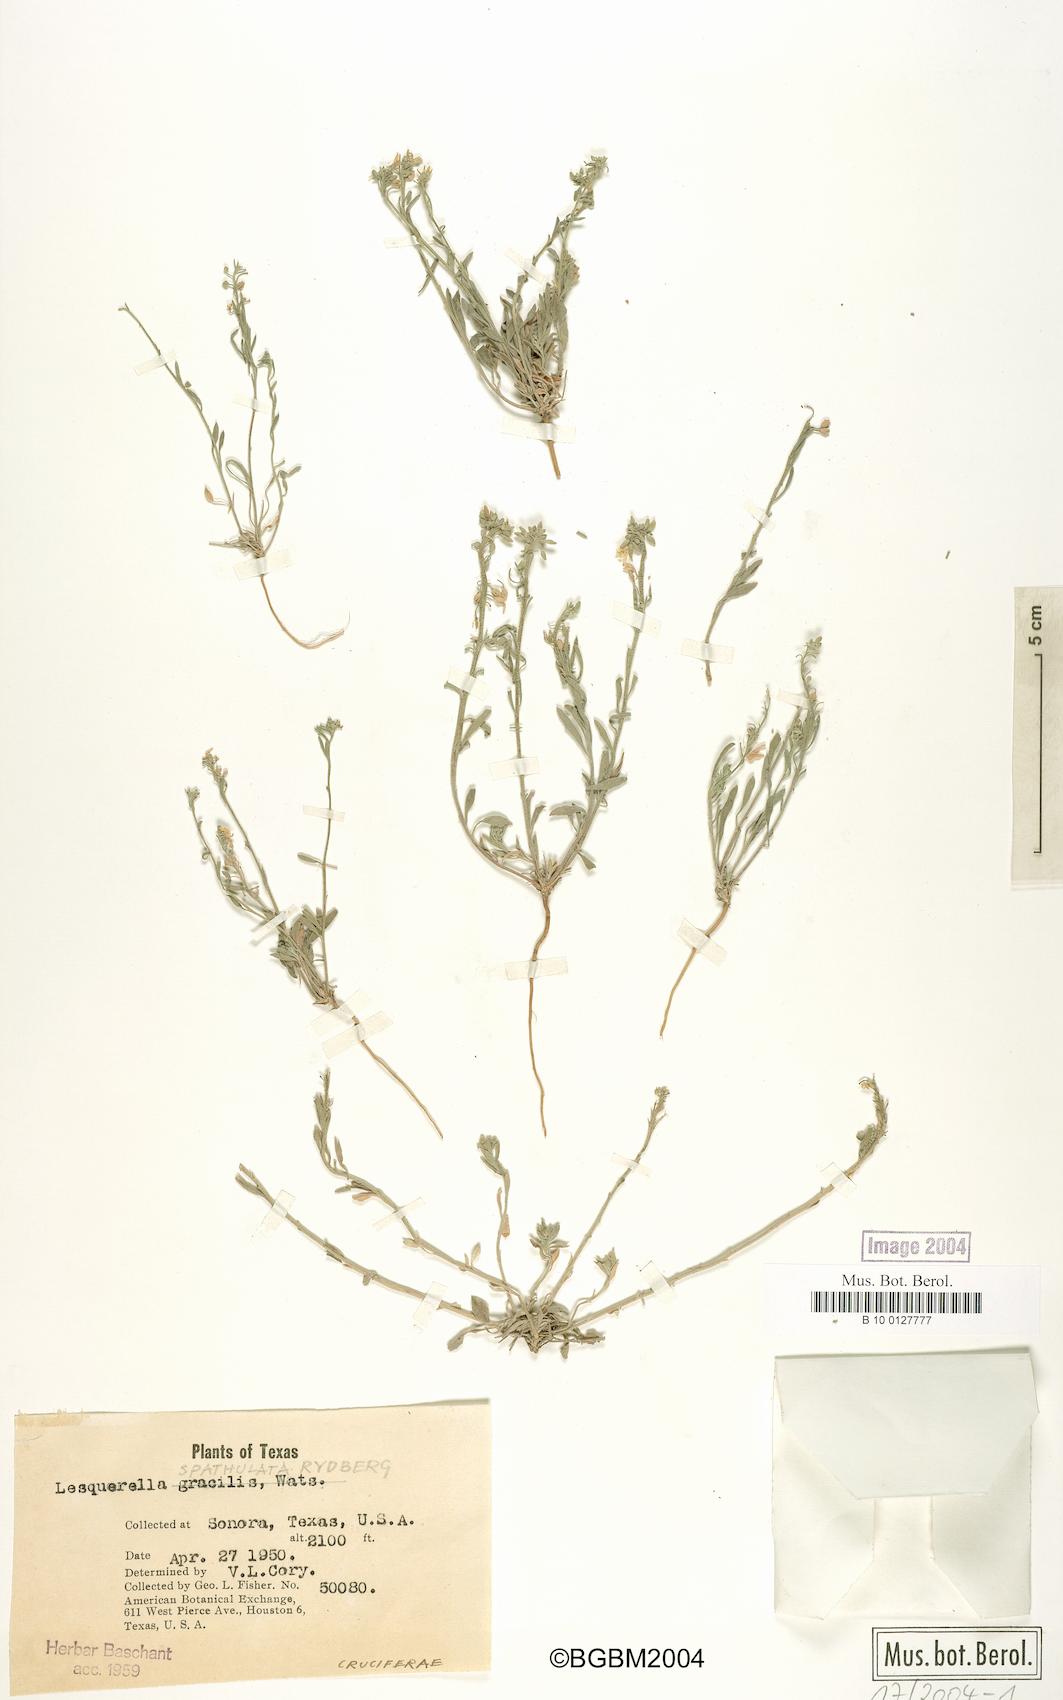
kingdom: Plantae
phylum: Tracheophyta
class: Magnoliopsida
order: Brassicales
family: Brassicaceae
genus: Physaria
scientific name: Physaria spatulata
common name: Alpine bladderpod
